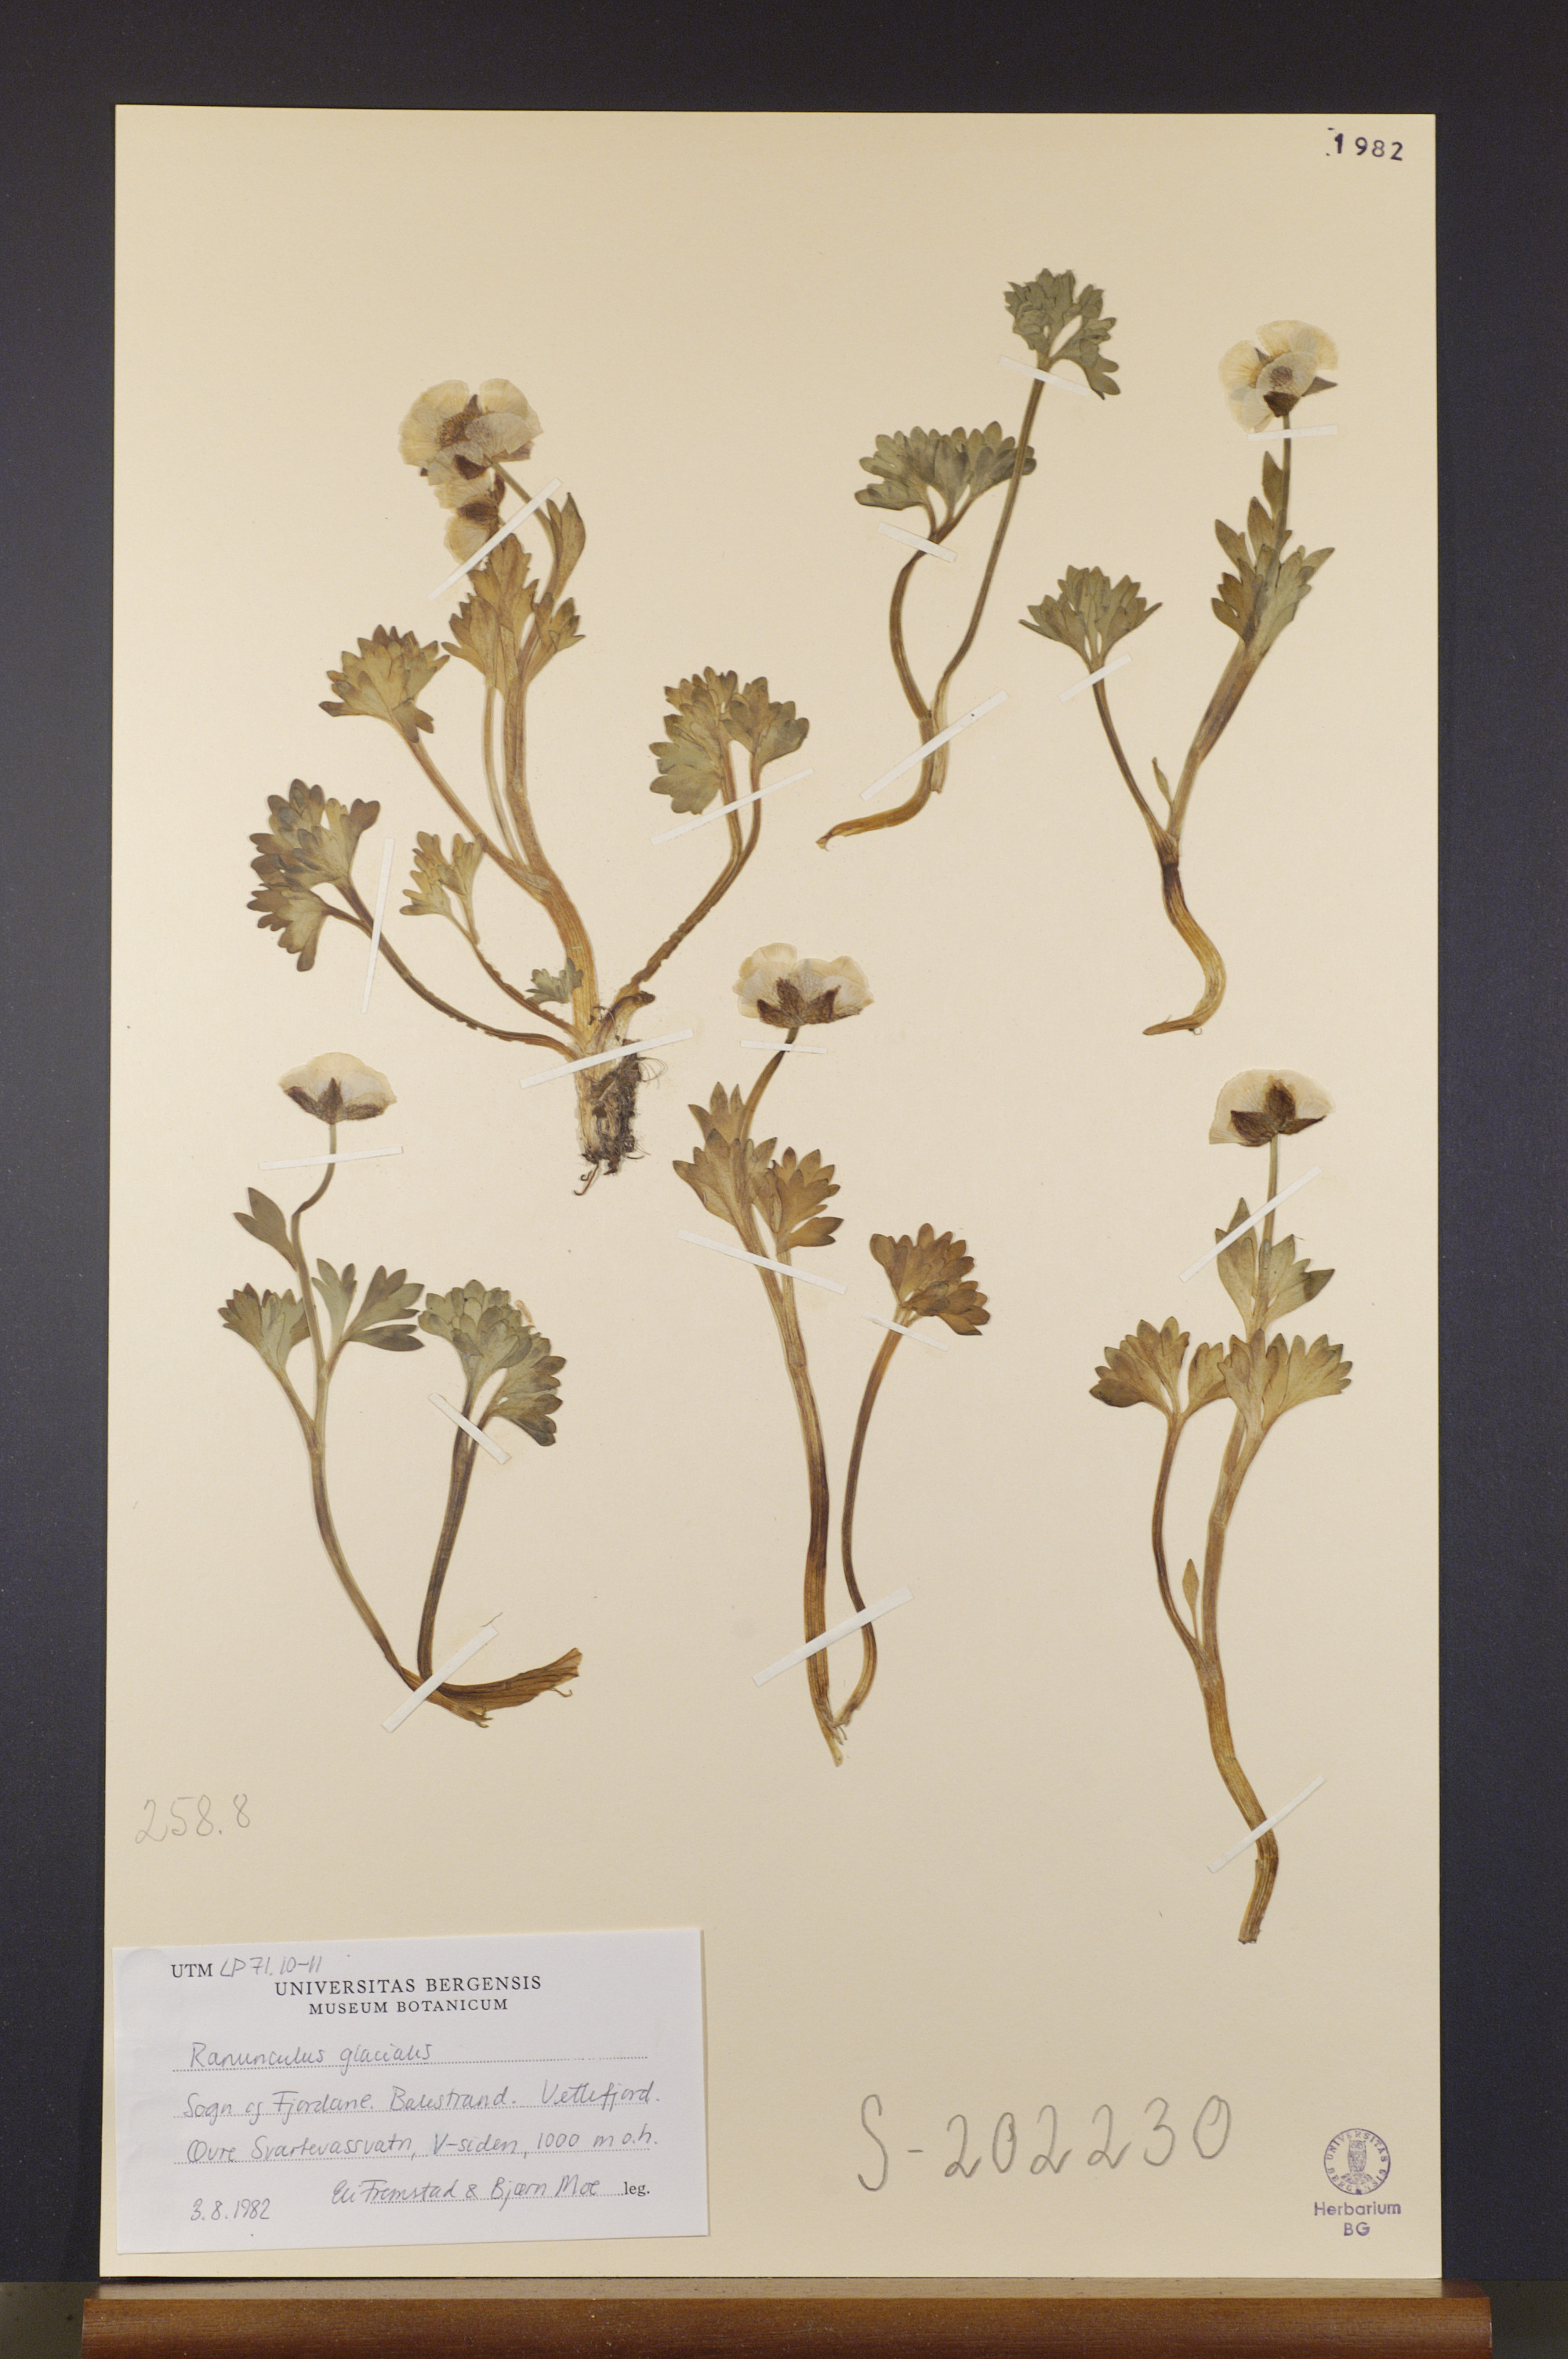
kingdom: Plantae
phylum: Tracheophyta
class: Magnoliopsida
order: Ranunculales
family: Ranunculaceae
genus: Ranunculus
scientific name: Ranunculus glacialis
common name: Glacier buttercup
